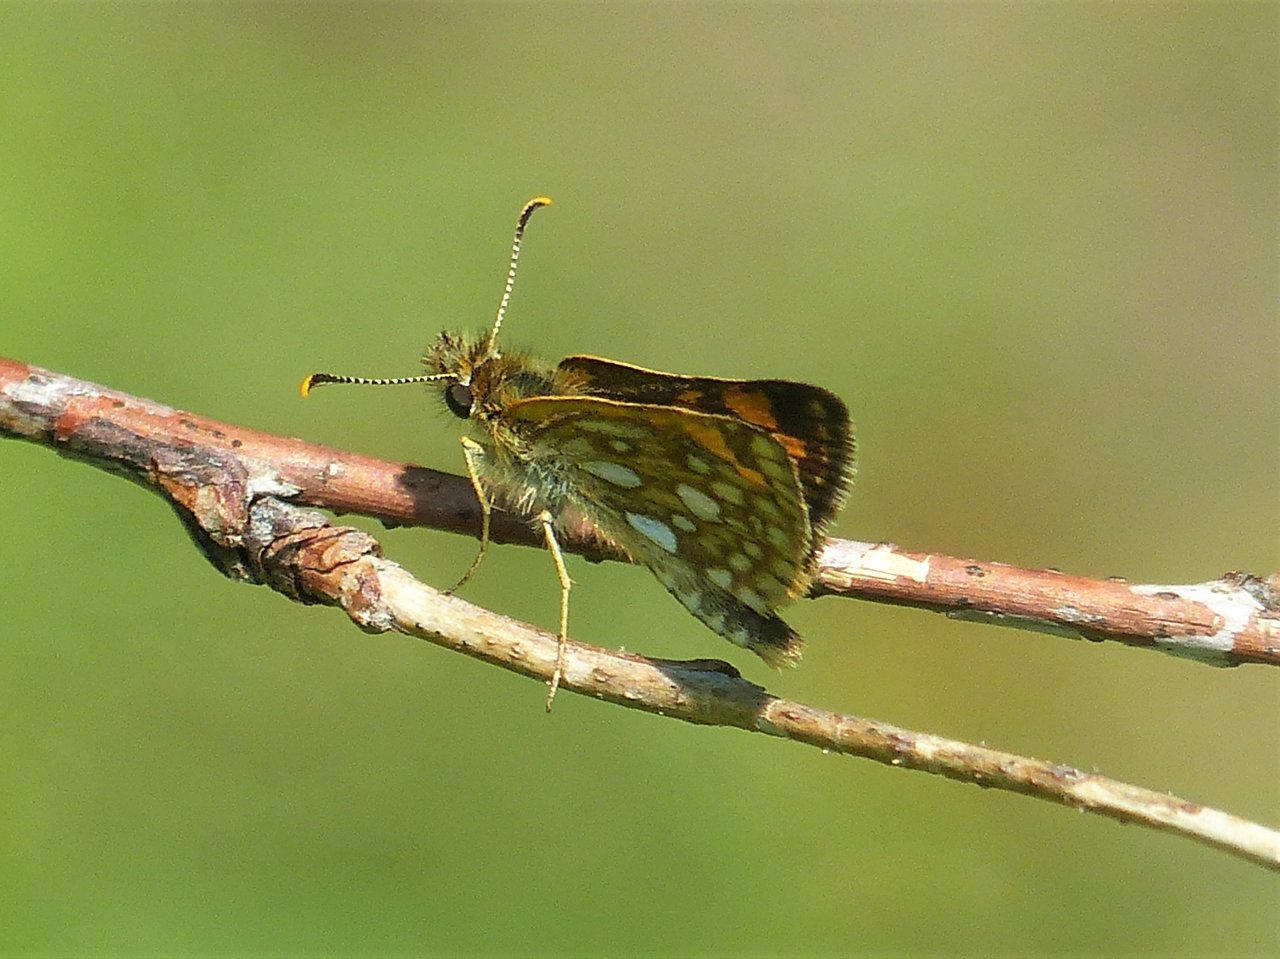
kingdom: Animalia
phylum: Arthropoda
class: Insecta
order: Lepidoptera
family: Hesperiidae
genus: Carterocephalus
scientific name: Carterocephalus palaemon
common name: Chequered Skipper
